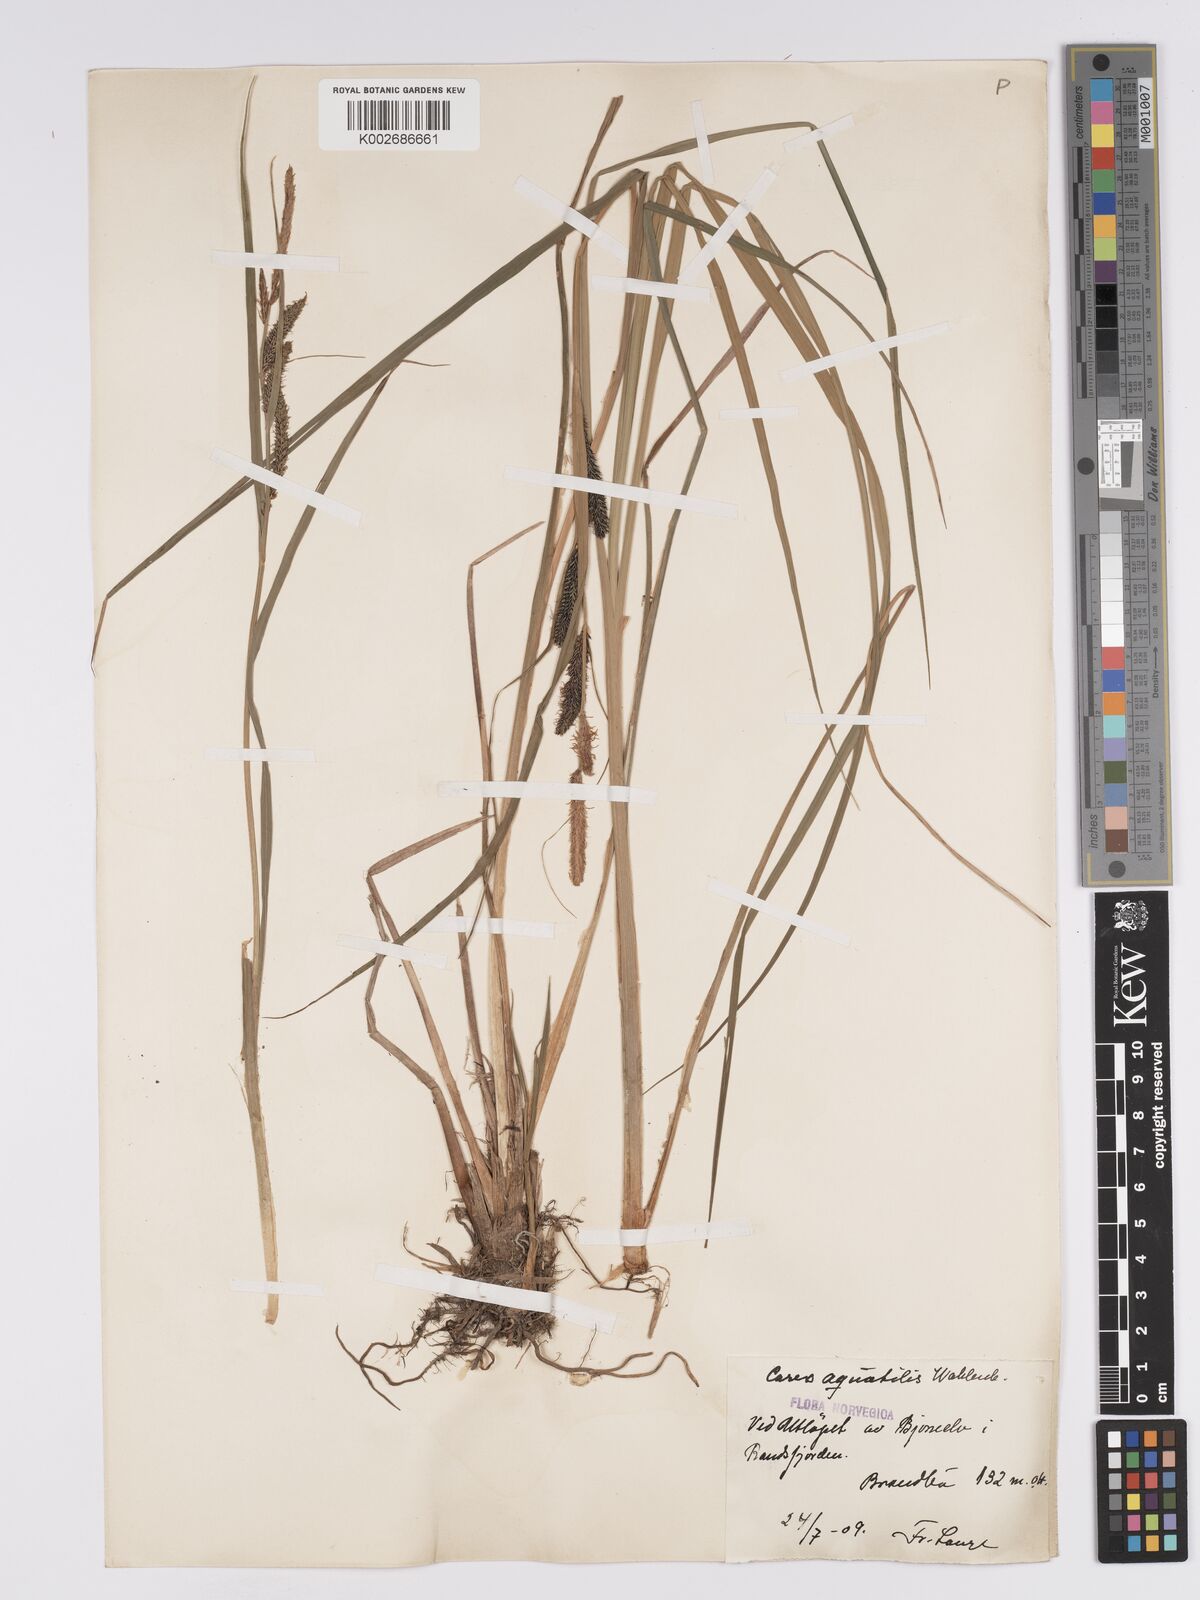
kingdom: Plantae
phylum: Tracheophyta
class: Liliopsida
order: Poales
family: Cyperaceae
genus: Carex
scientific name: Carex aquatilis
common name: Water sedge
